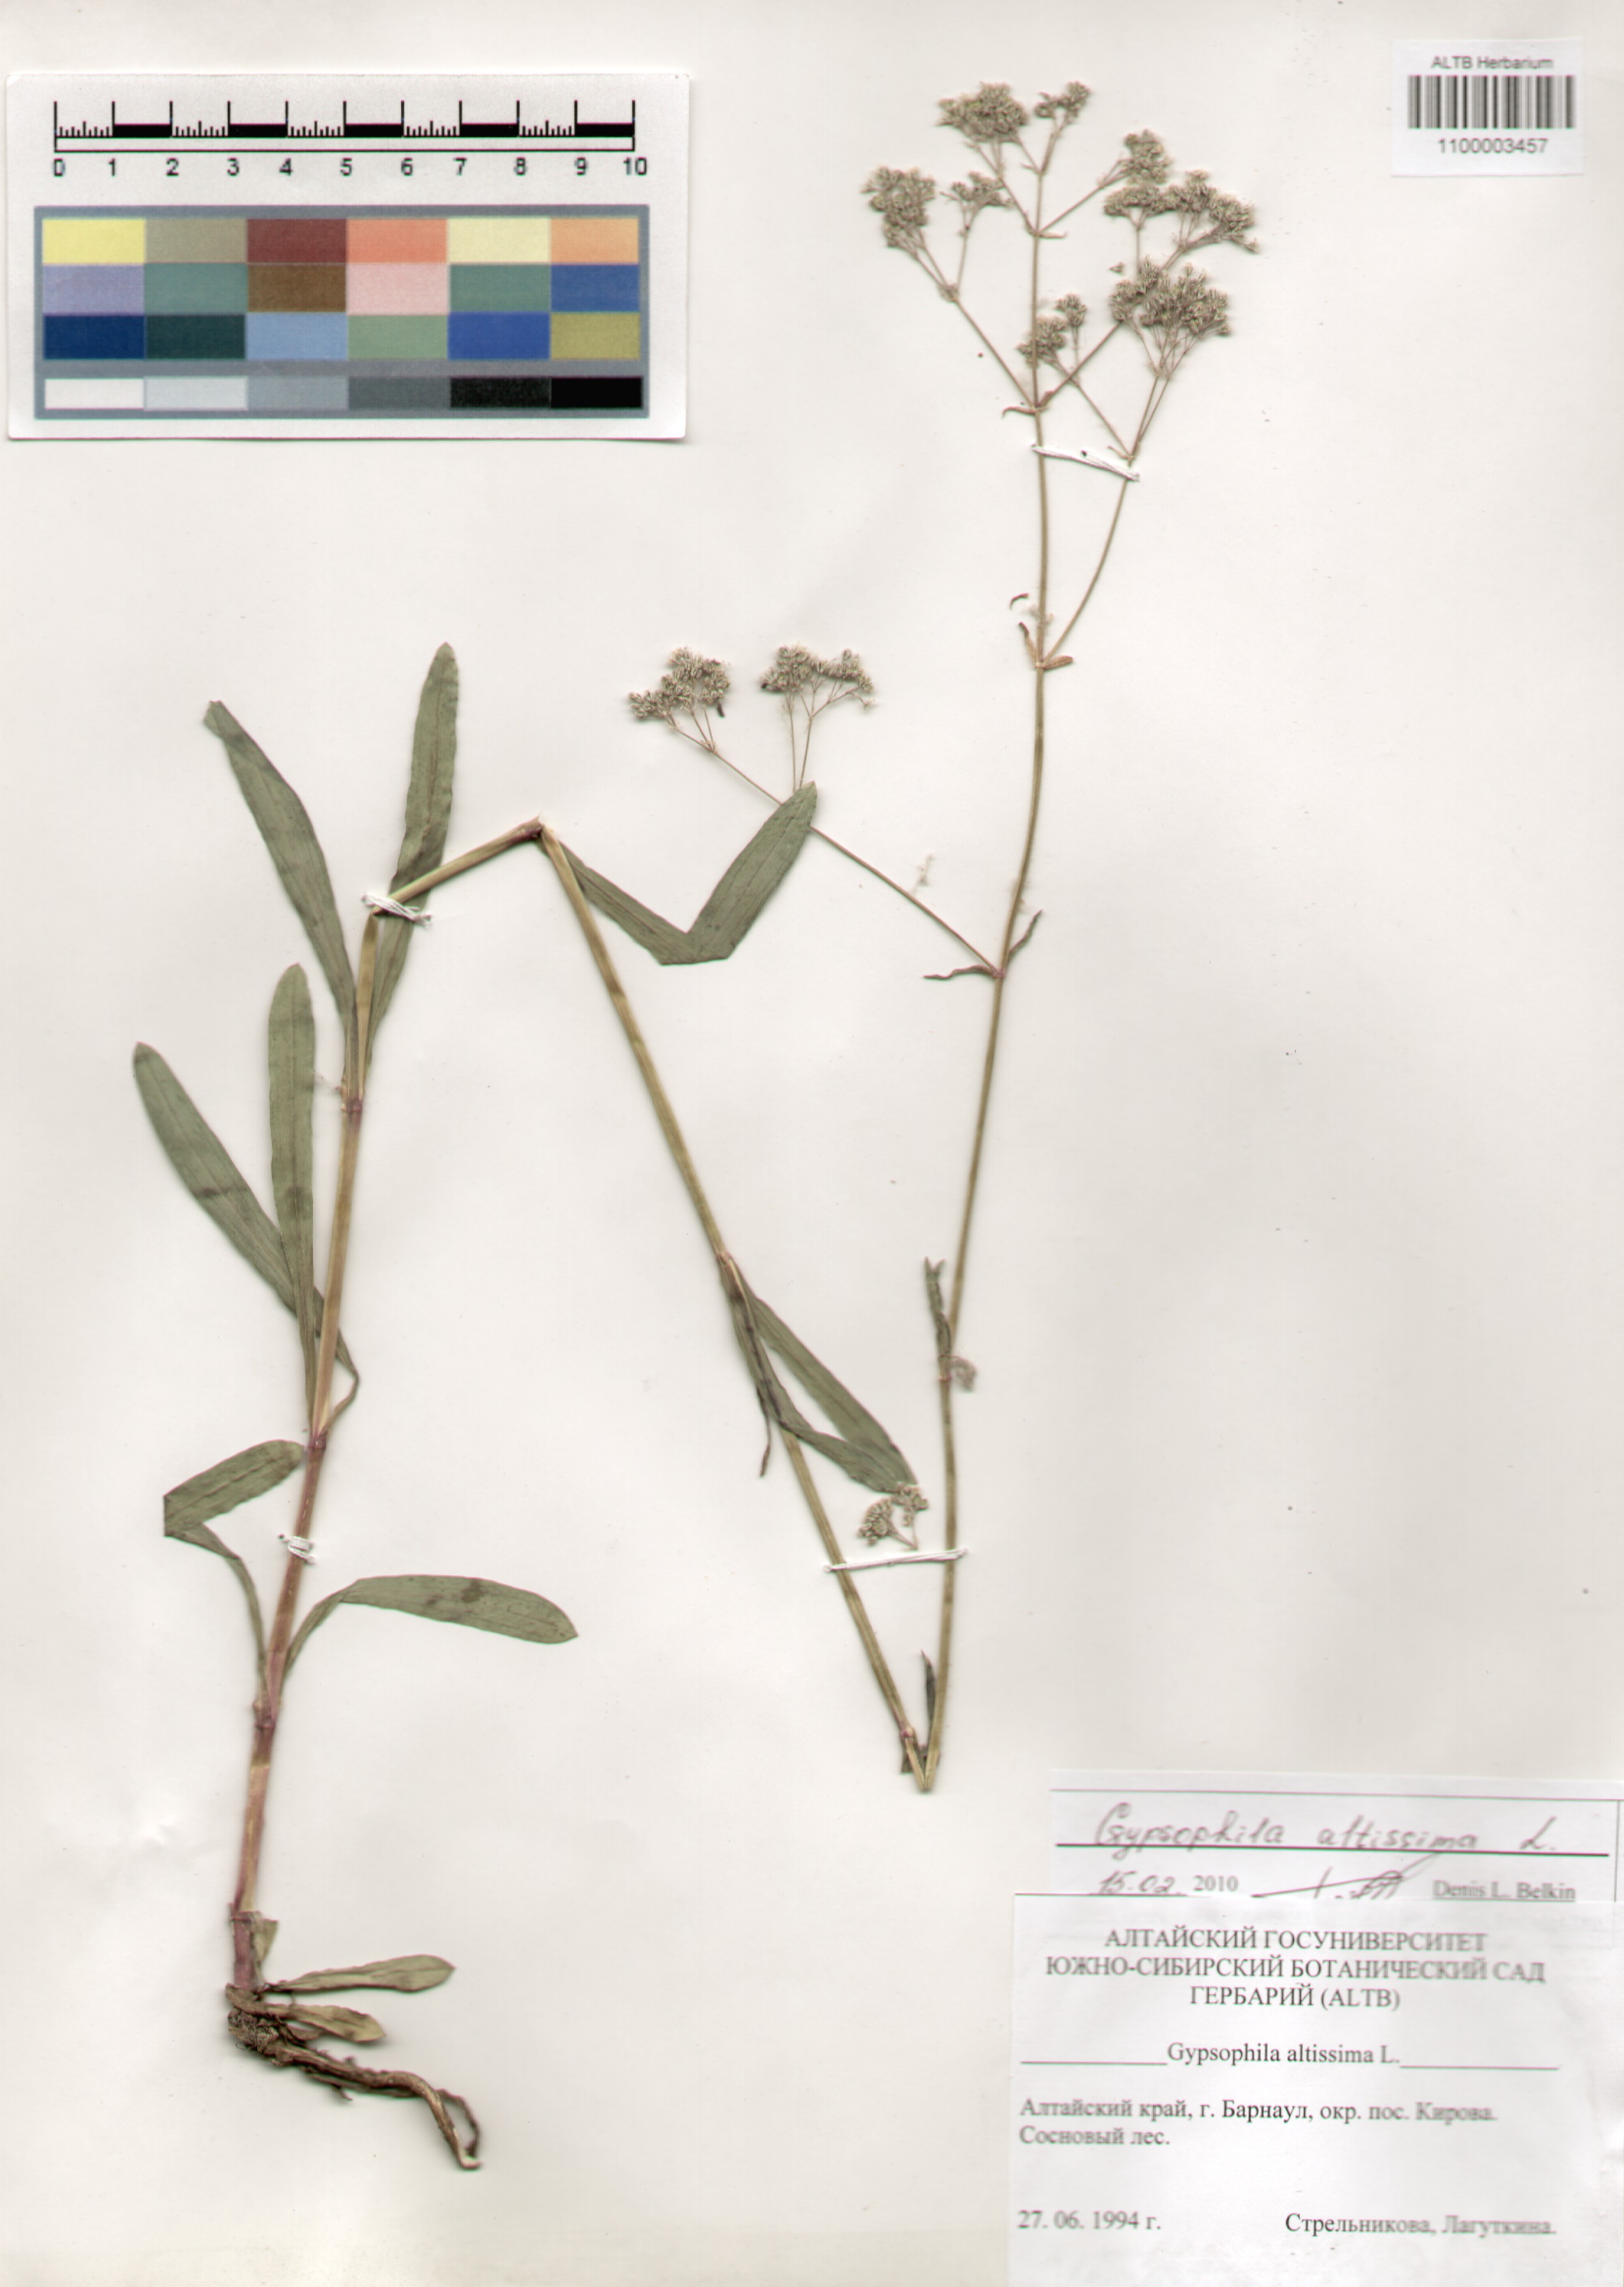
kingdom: Plantae
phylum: Tracheophyta
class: Magnoliopsida
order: Caryophyllales
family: Caryophyllaceae
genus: Gypsophila
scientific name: Gypsophila altissima
